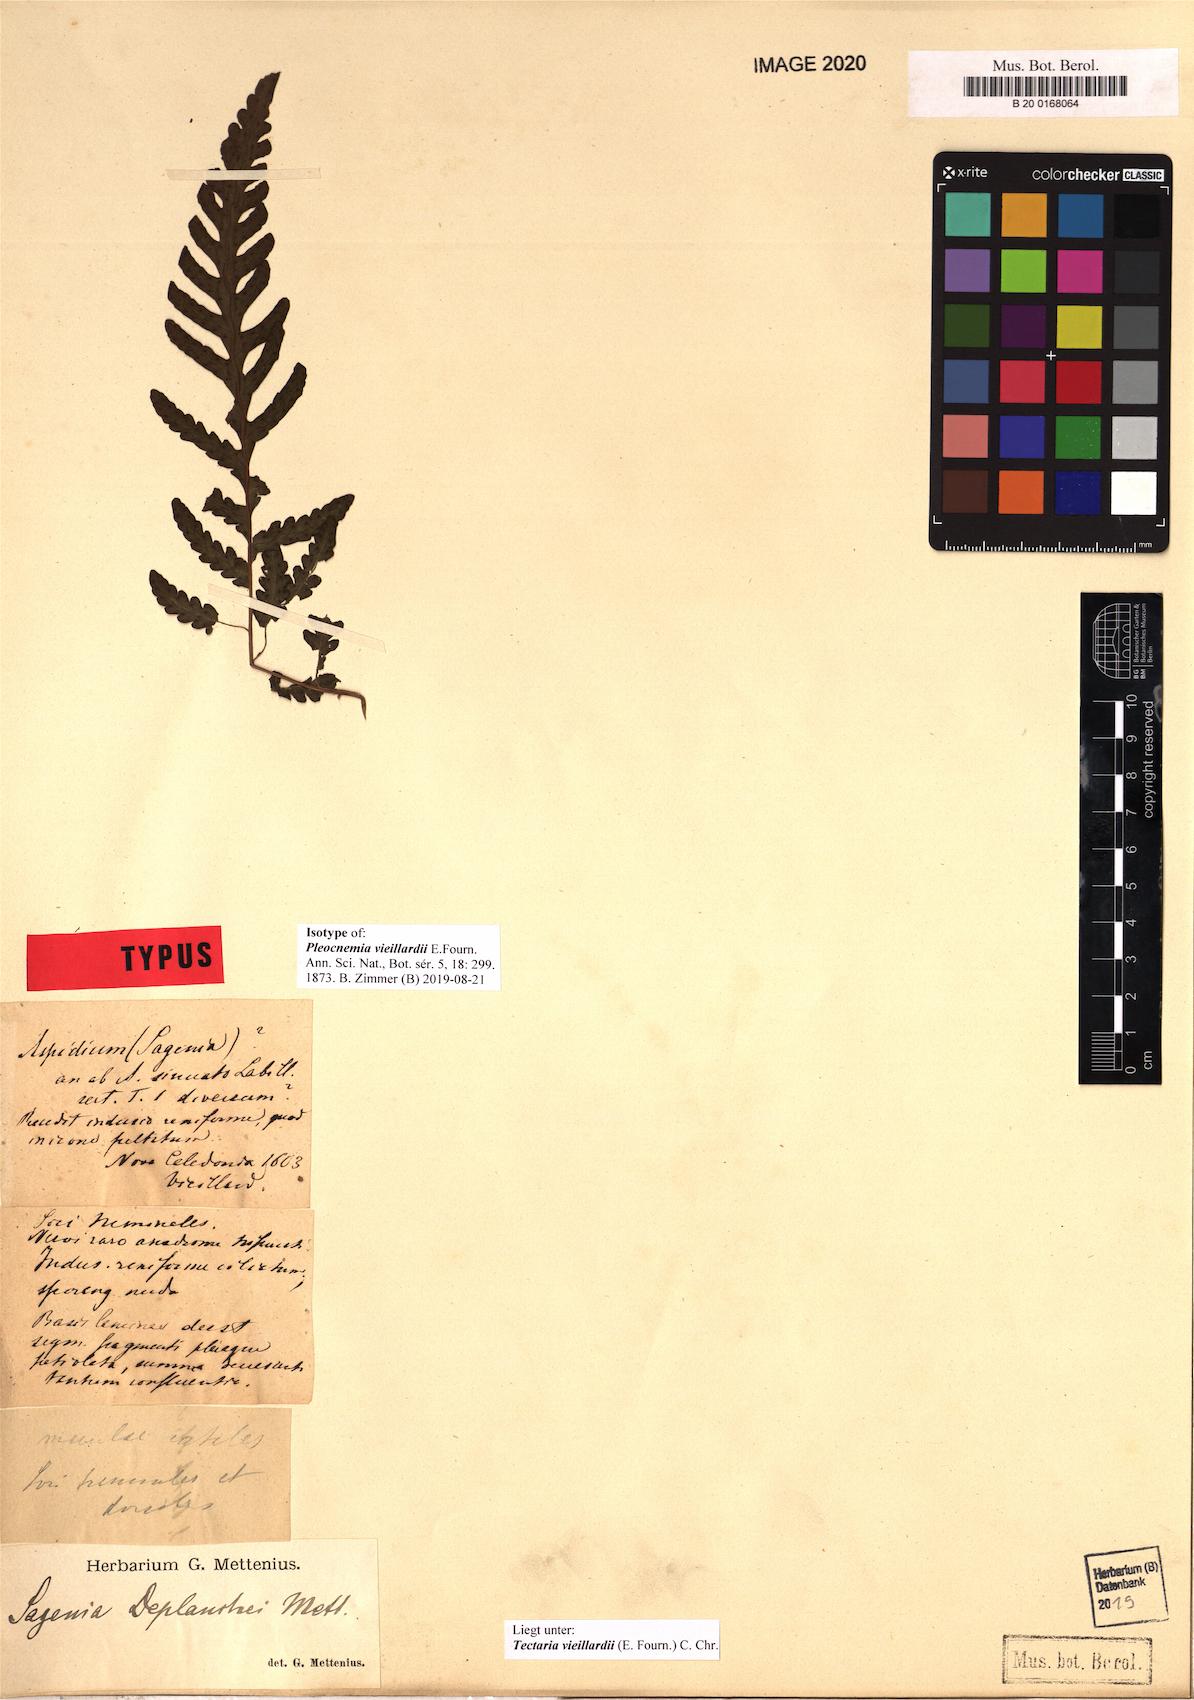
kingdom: Plantae
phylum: Tracheophyta
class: Polypodiopsida
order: Polypodiales
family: Tectariaceae
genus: Tectaria
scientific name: Tectaria vieillardii
